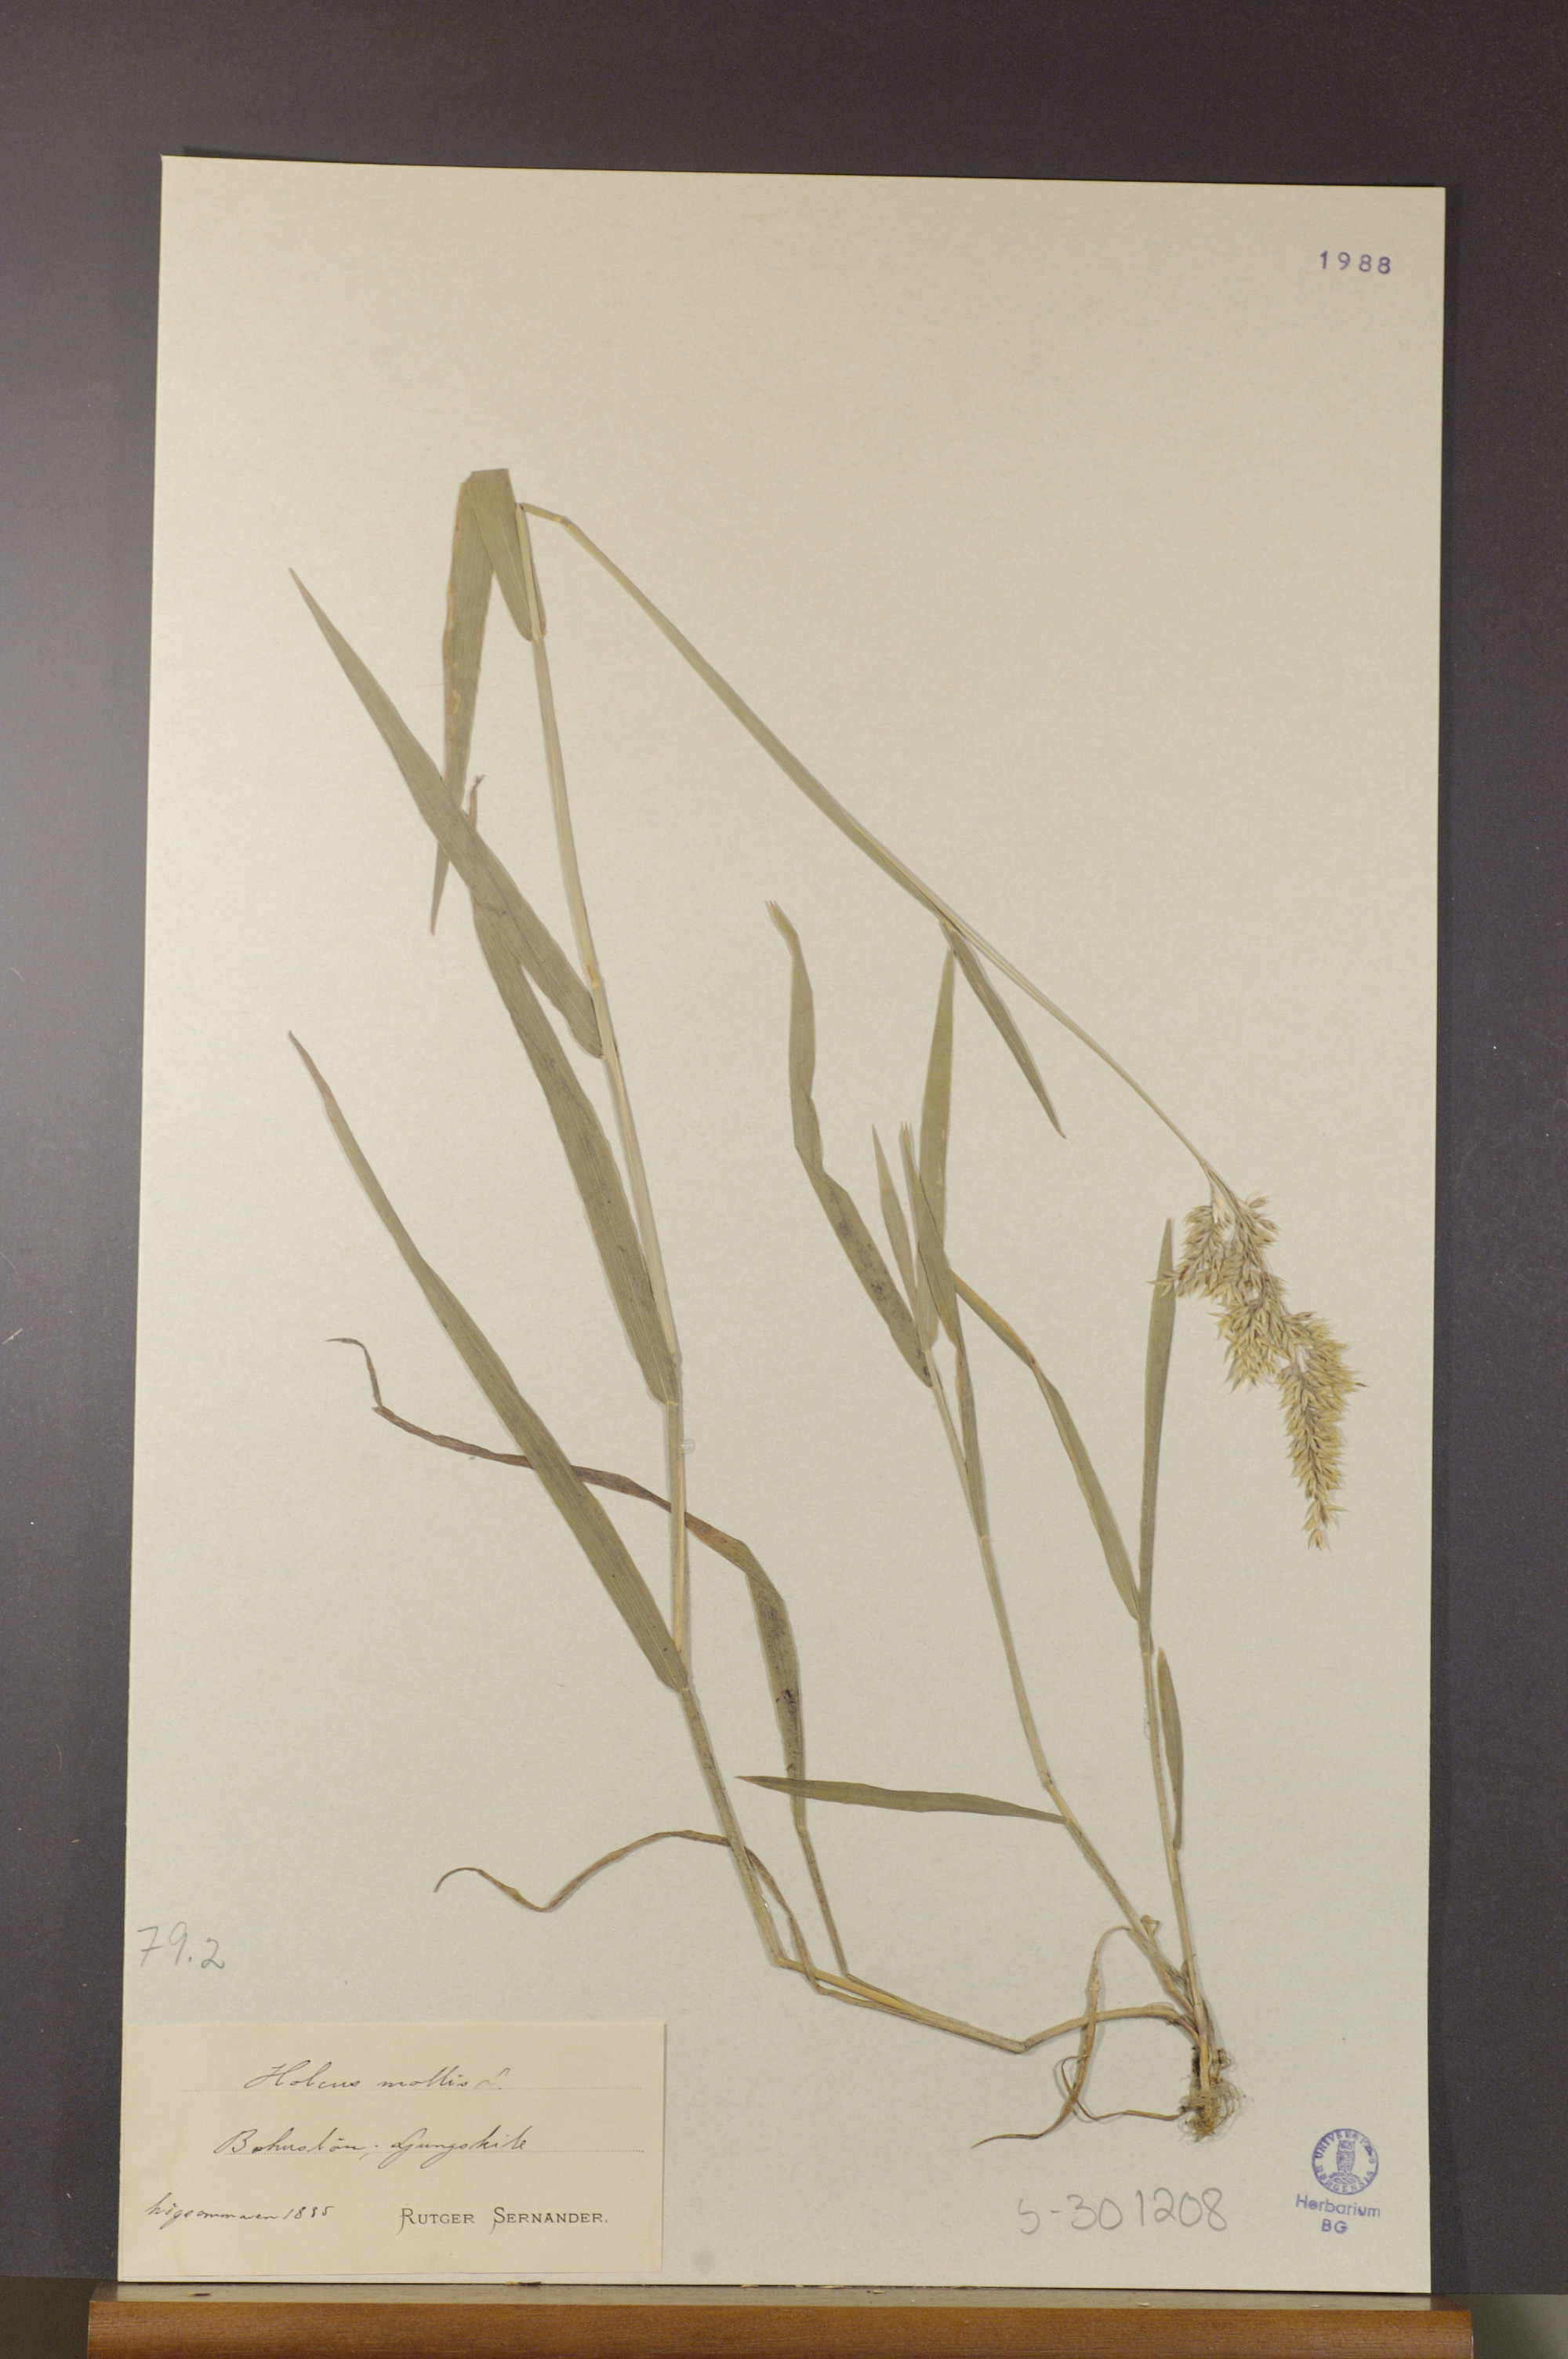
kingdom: Plantae
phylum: Tracheophyta
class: Liliopsida
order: Poales
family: Poaceae
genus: Holcus
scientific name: Holcus mollis
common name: Creeping velvetgrass
